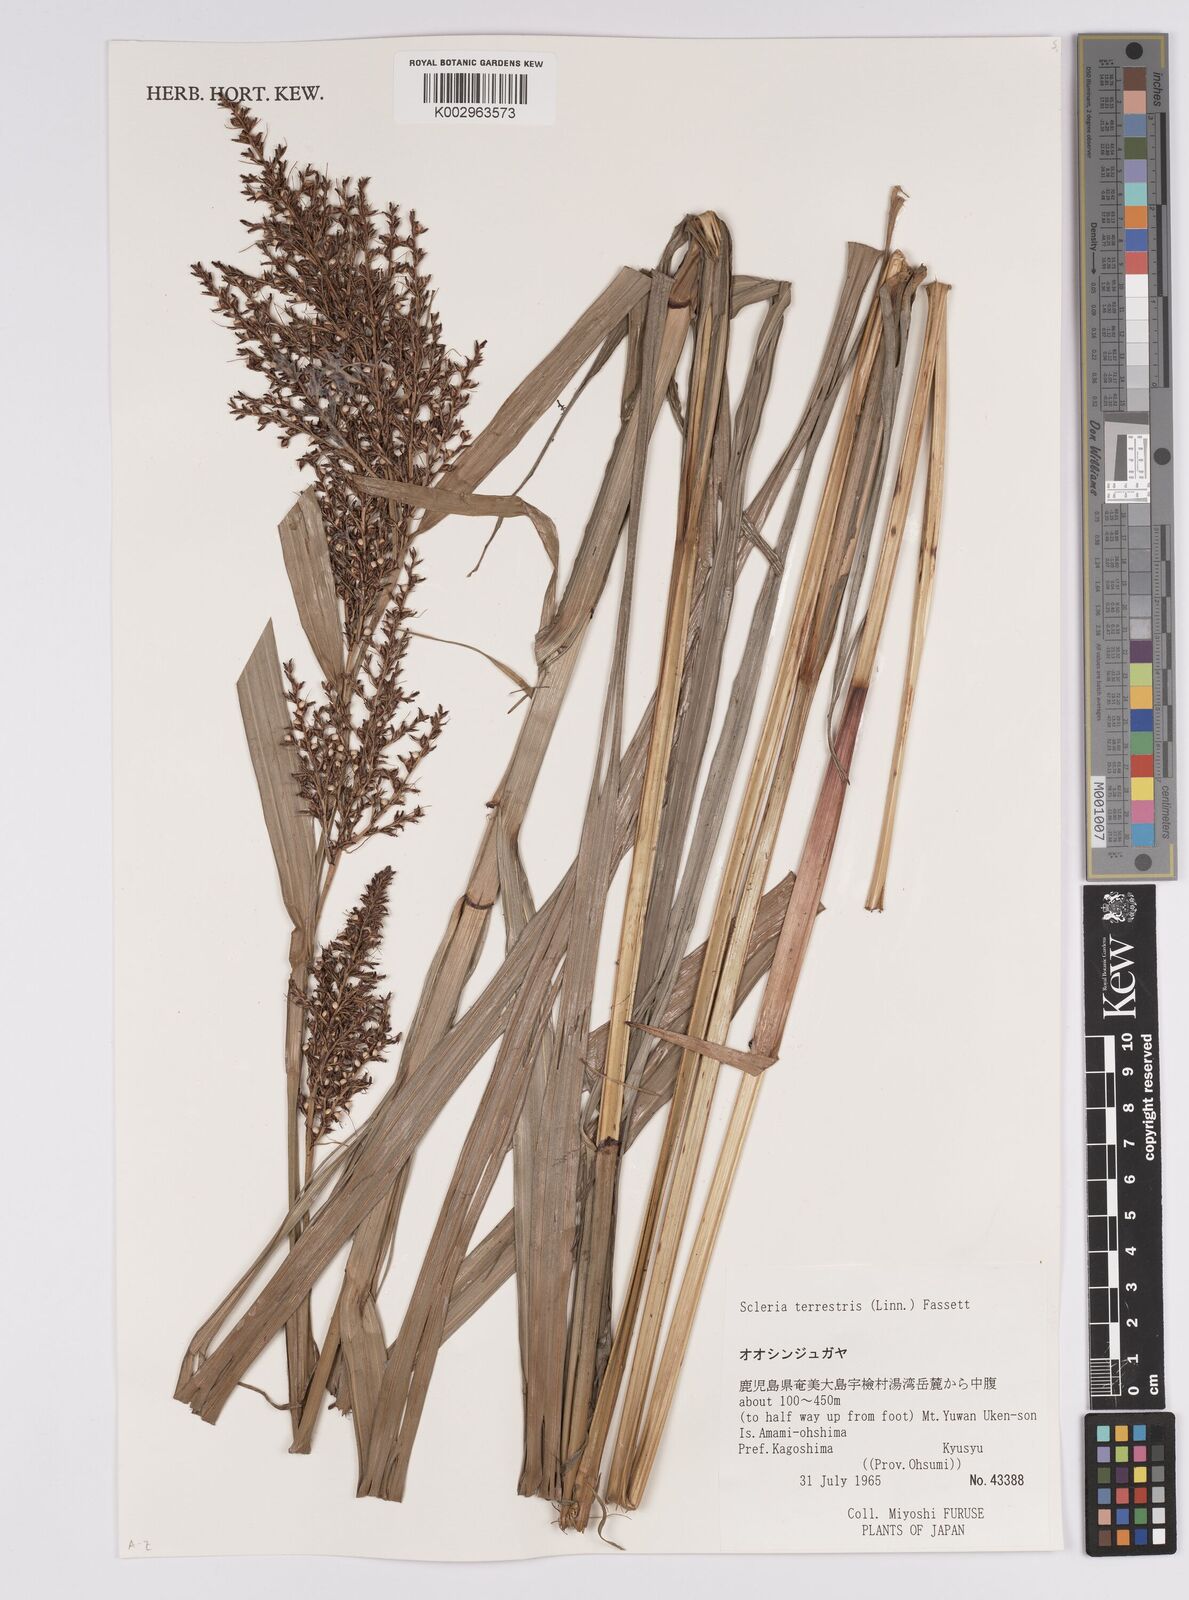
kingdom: Plantae
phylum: Tracheophyta
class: Liliopsida
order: Poales
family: Cyperaceae
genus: Scleria
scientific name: Scleria terrestris
